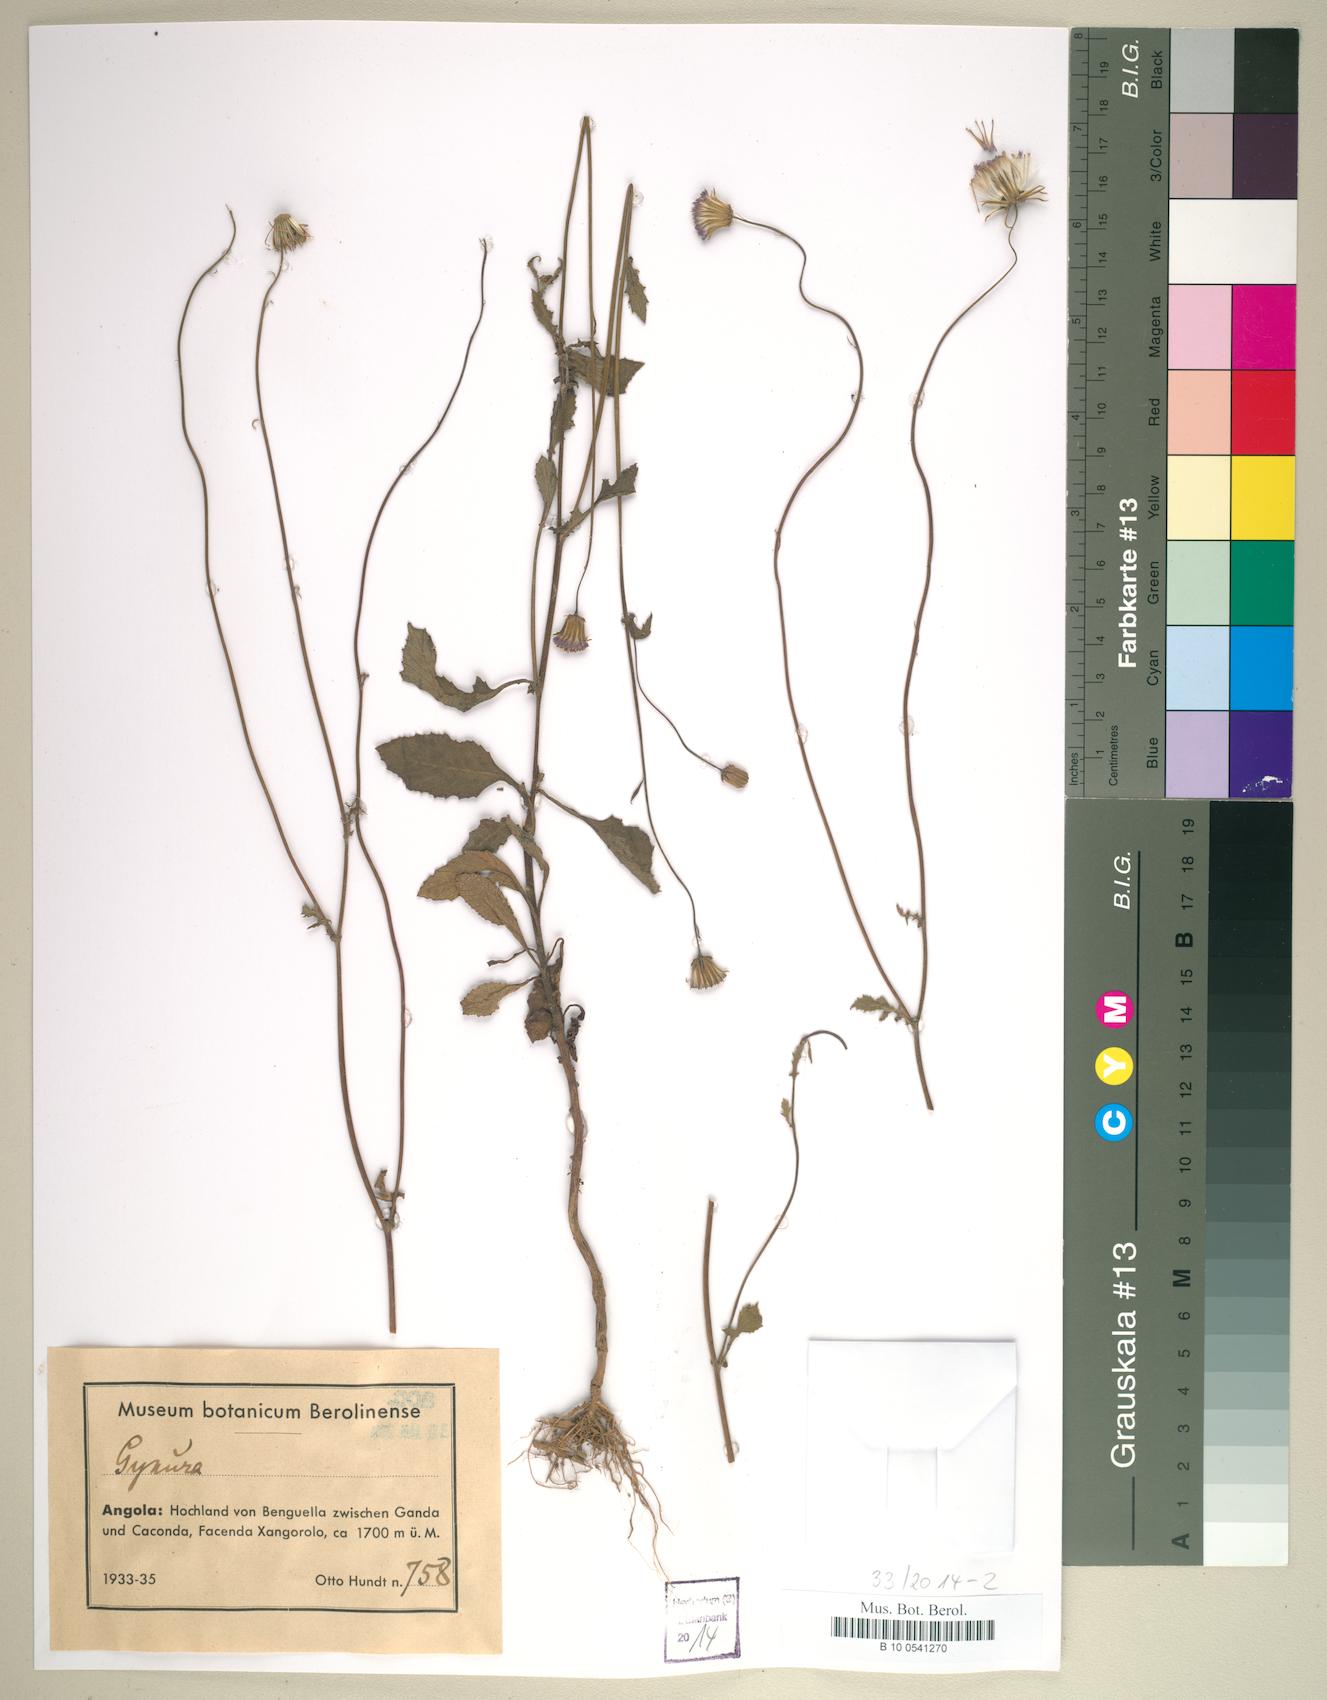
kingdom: Plantae
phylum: Tracheophyta
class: Magnoliopsida
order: Asterales
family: Asteraceae
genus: Gynura
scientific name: Gynura
